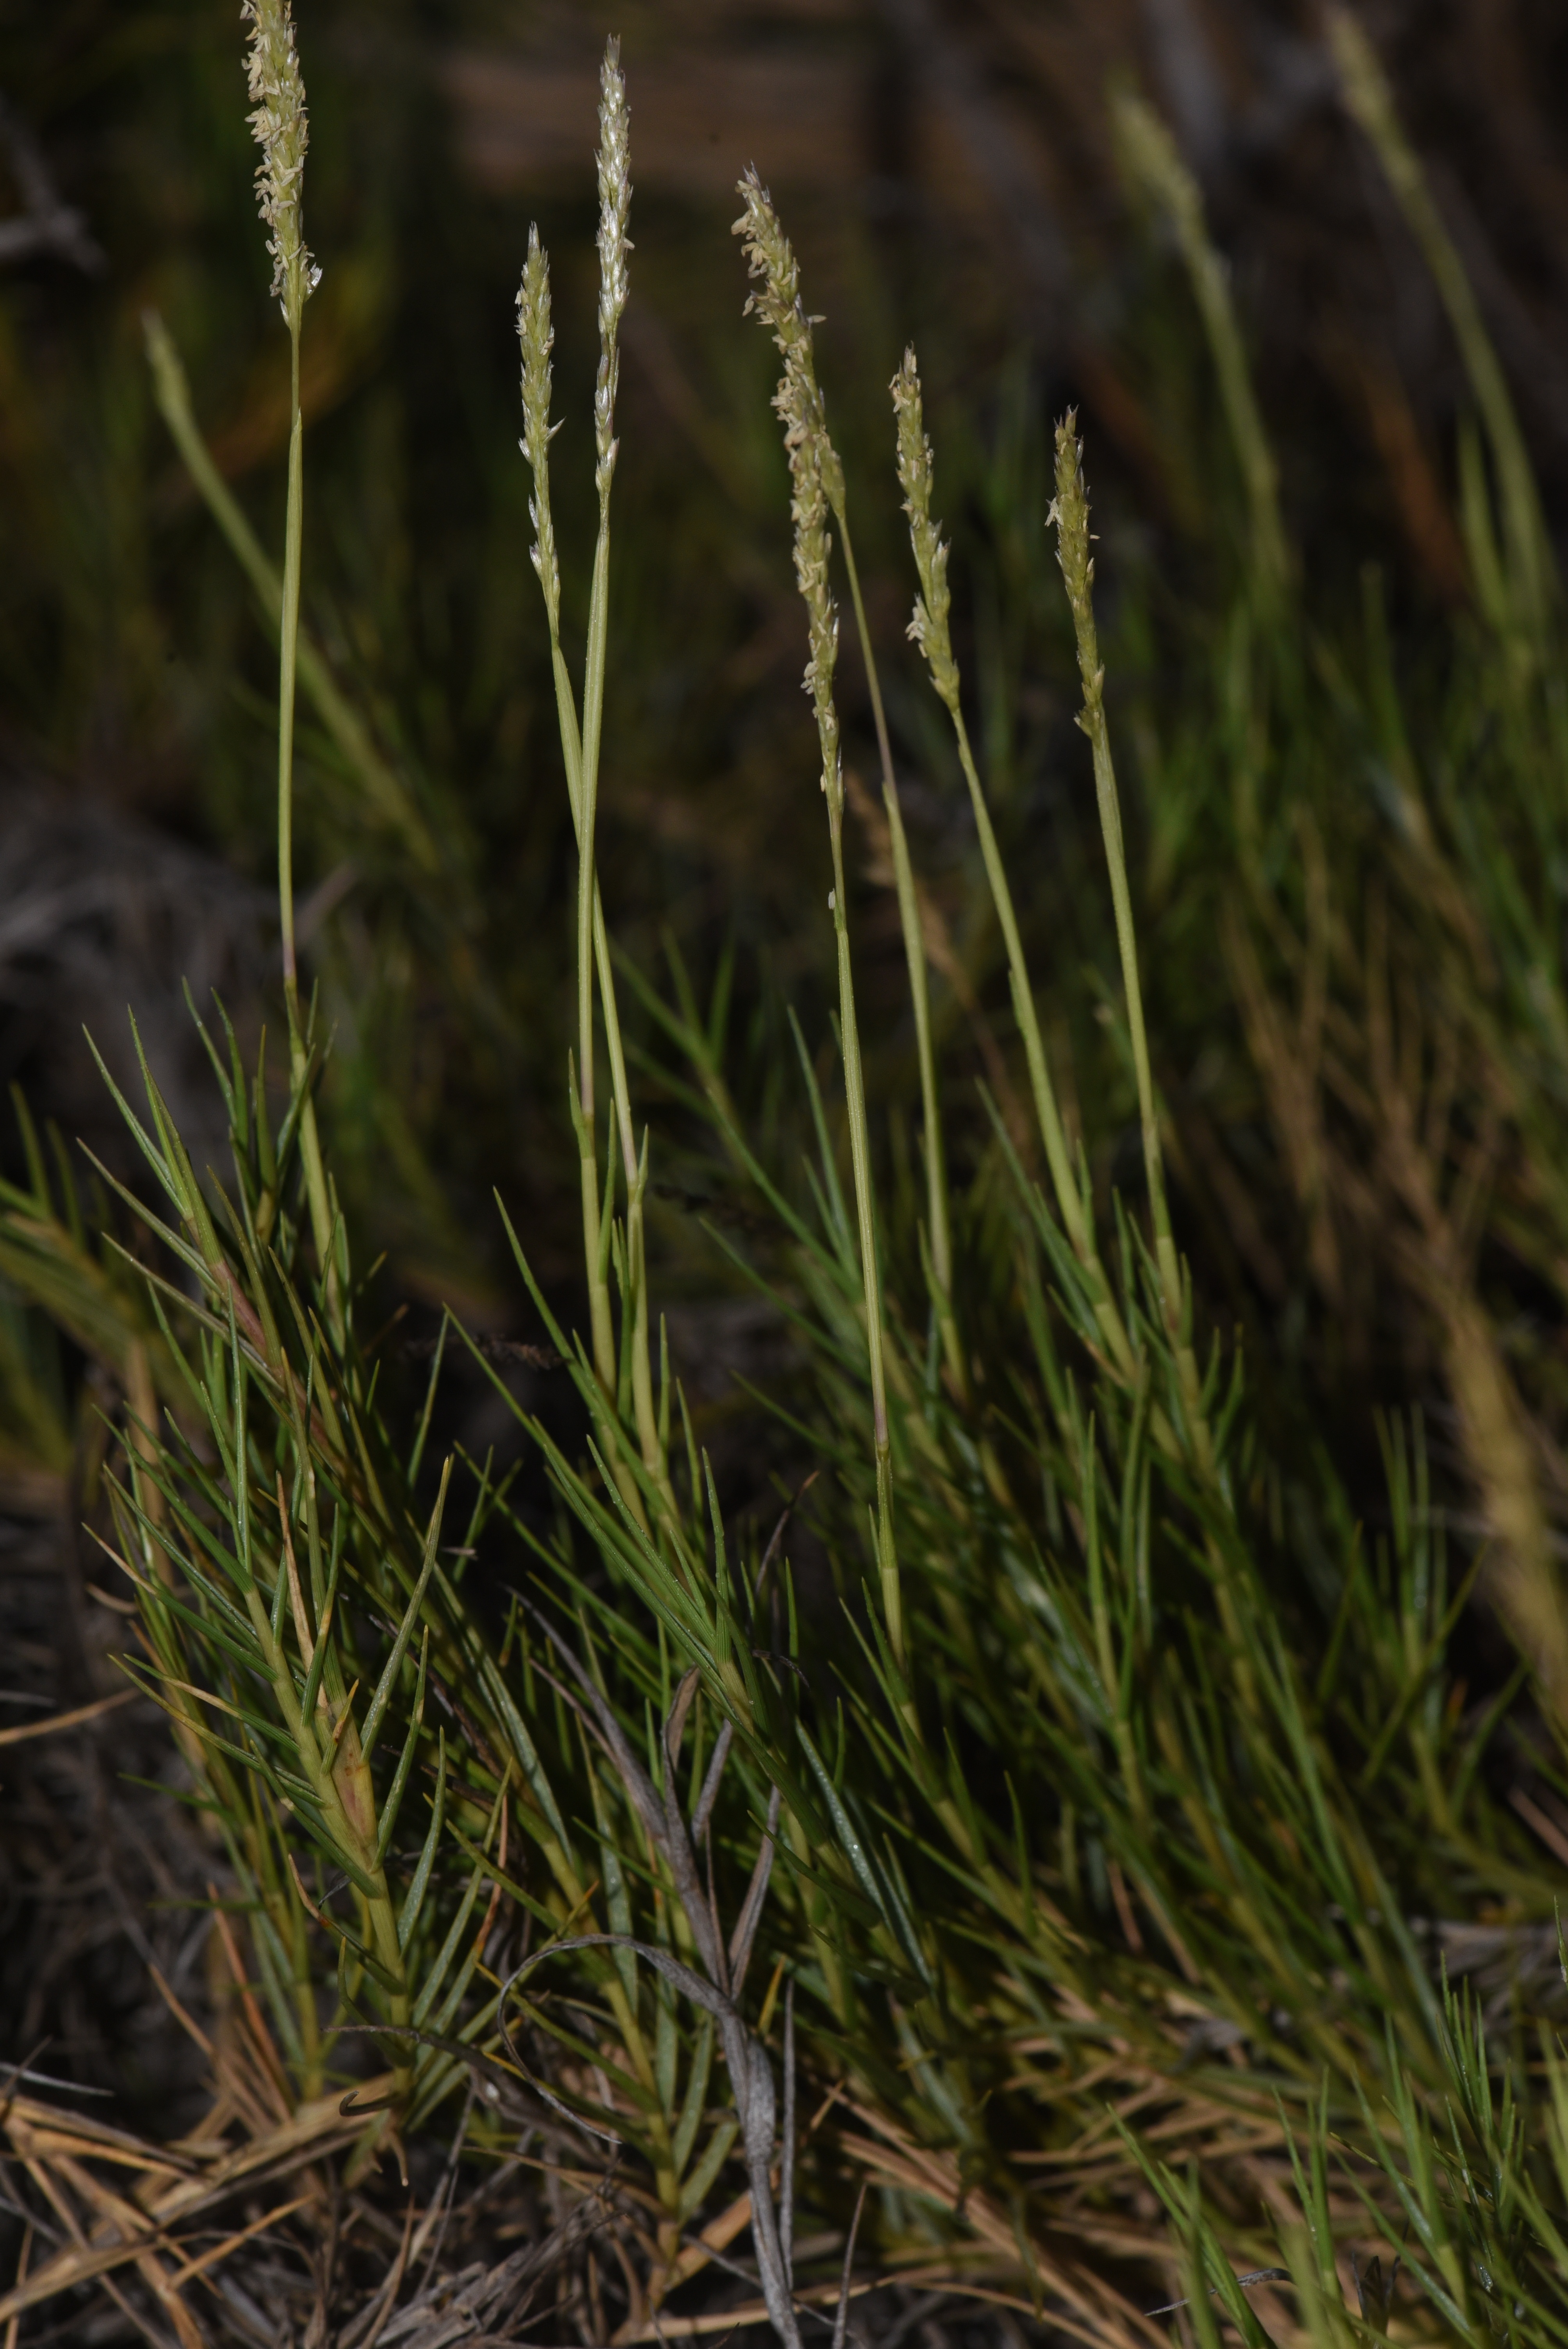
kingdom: Plantae
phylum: Tracheophyta
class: Liliopsida
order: Poales
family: Poaceae
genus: Distichlis
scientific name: Distichlis spicata
